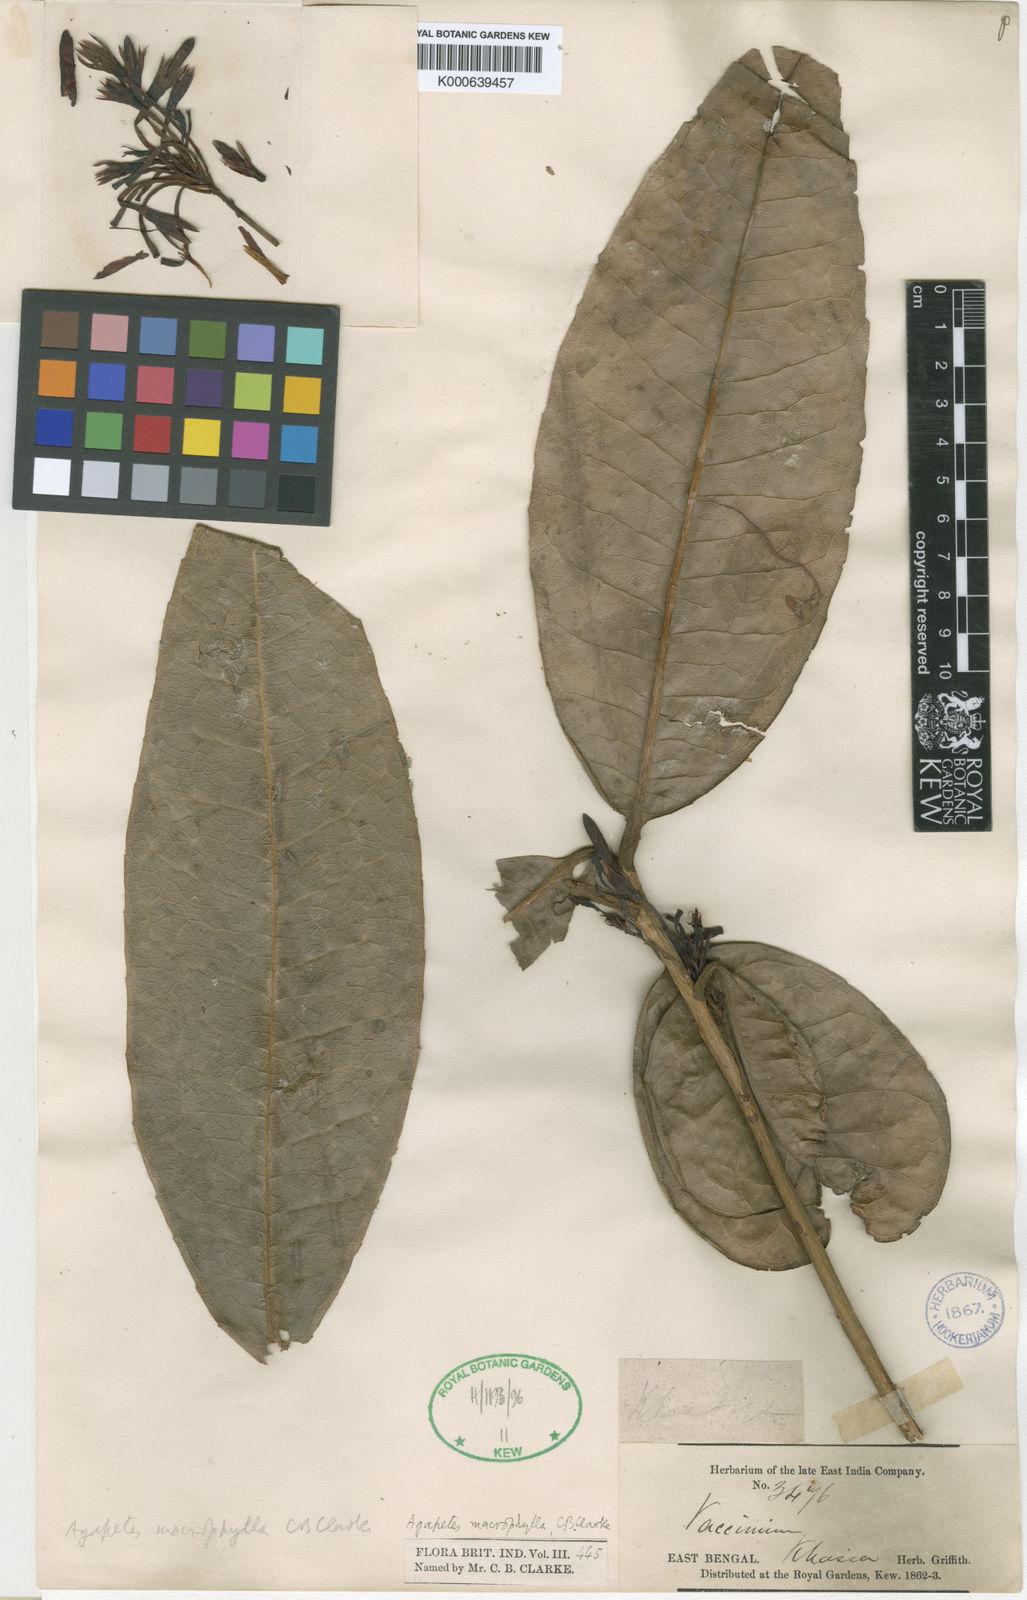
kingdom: Plantae
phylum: Tracheophyta
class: Magnoliopsida
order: Ericales
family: Ericaceae
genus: Agapetes
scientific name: Agapetes miniata
